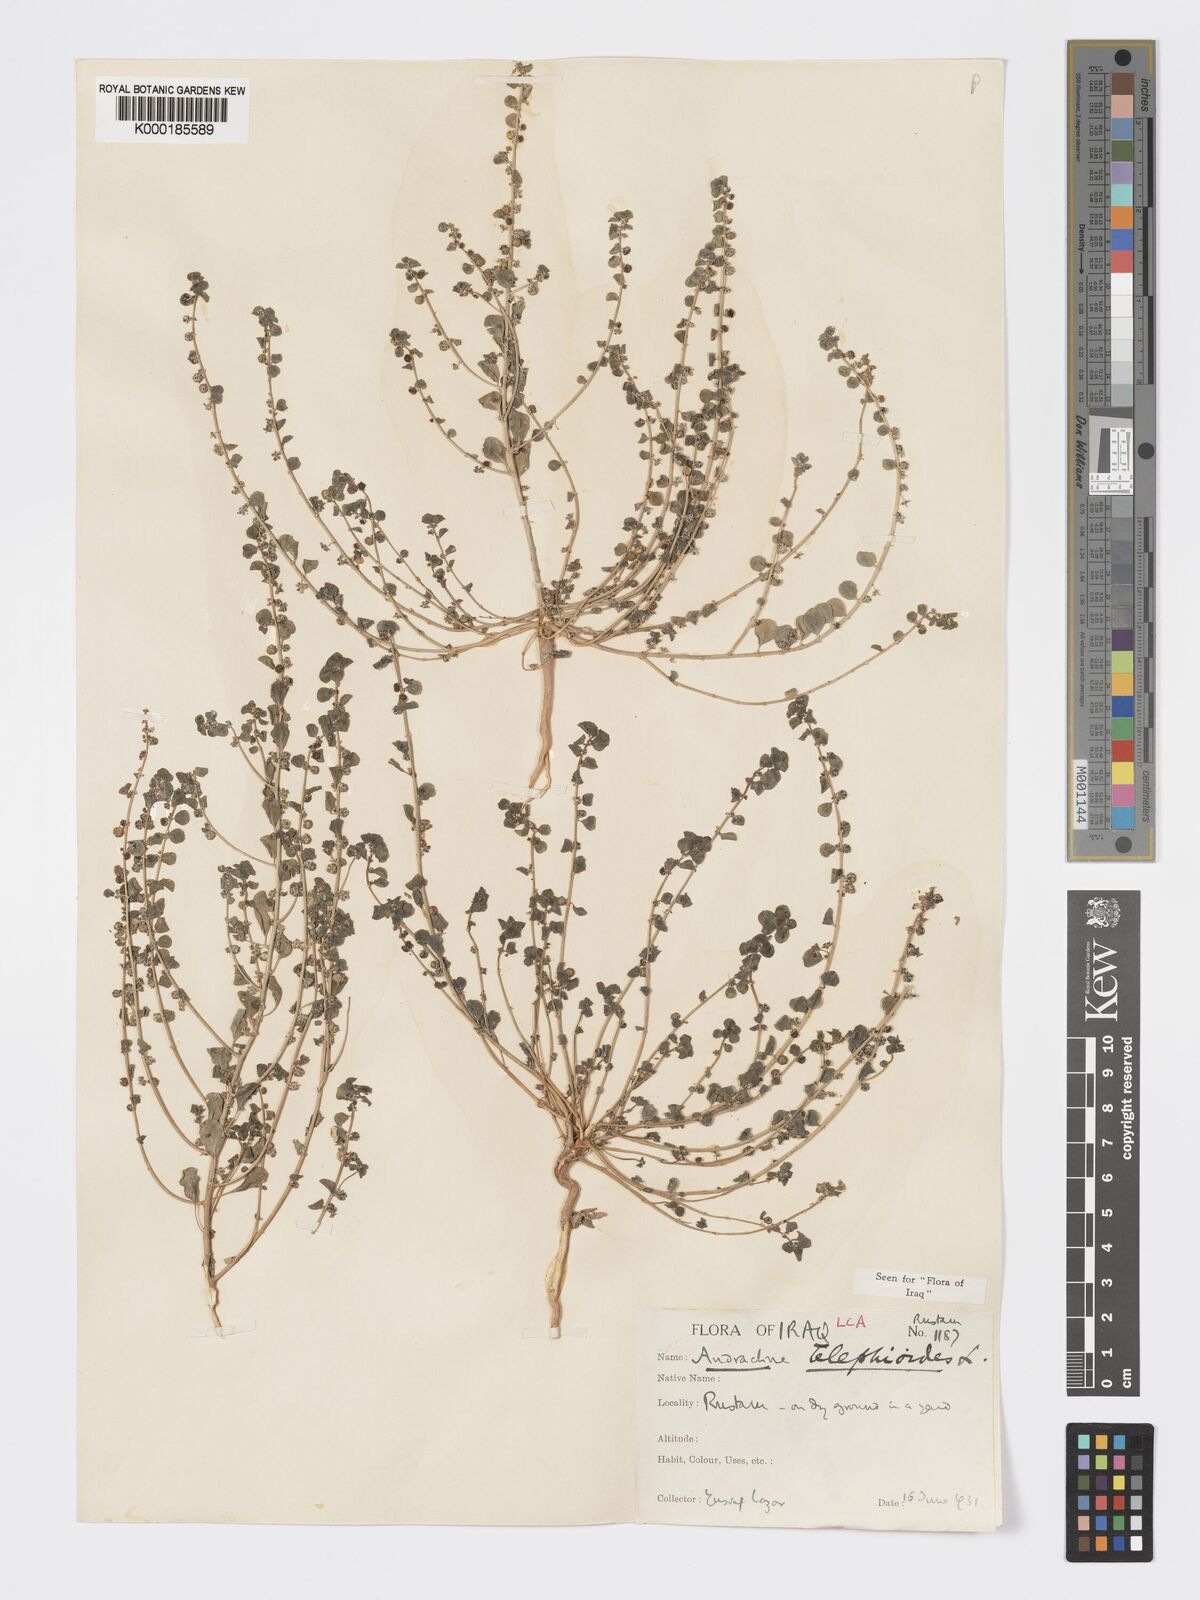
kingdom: Plantae
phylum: Tracheophyta
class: Magnoliopsida
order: Malpighiales
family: Phyllanthaceae
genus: Andrachne
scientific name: Andrachne telephioides
